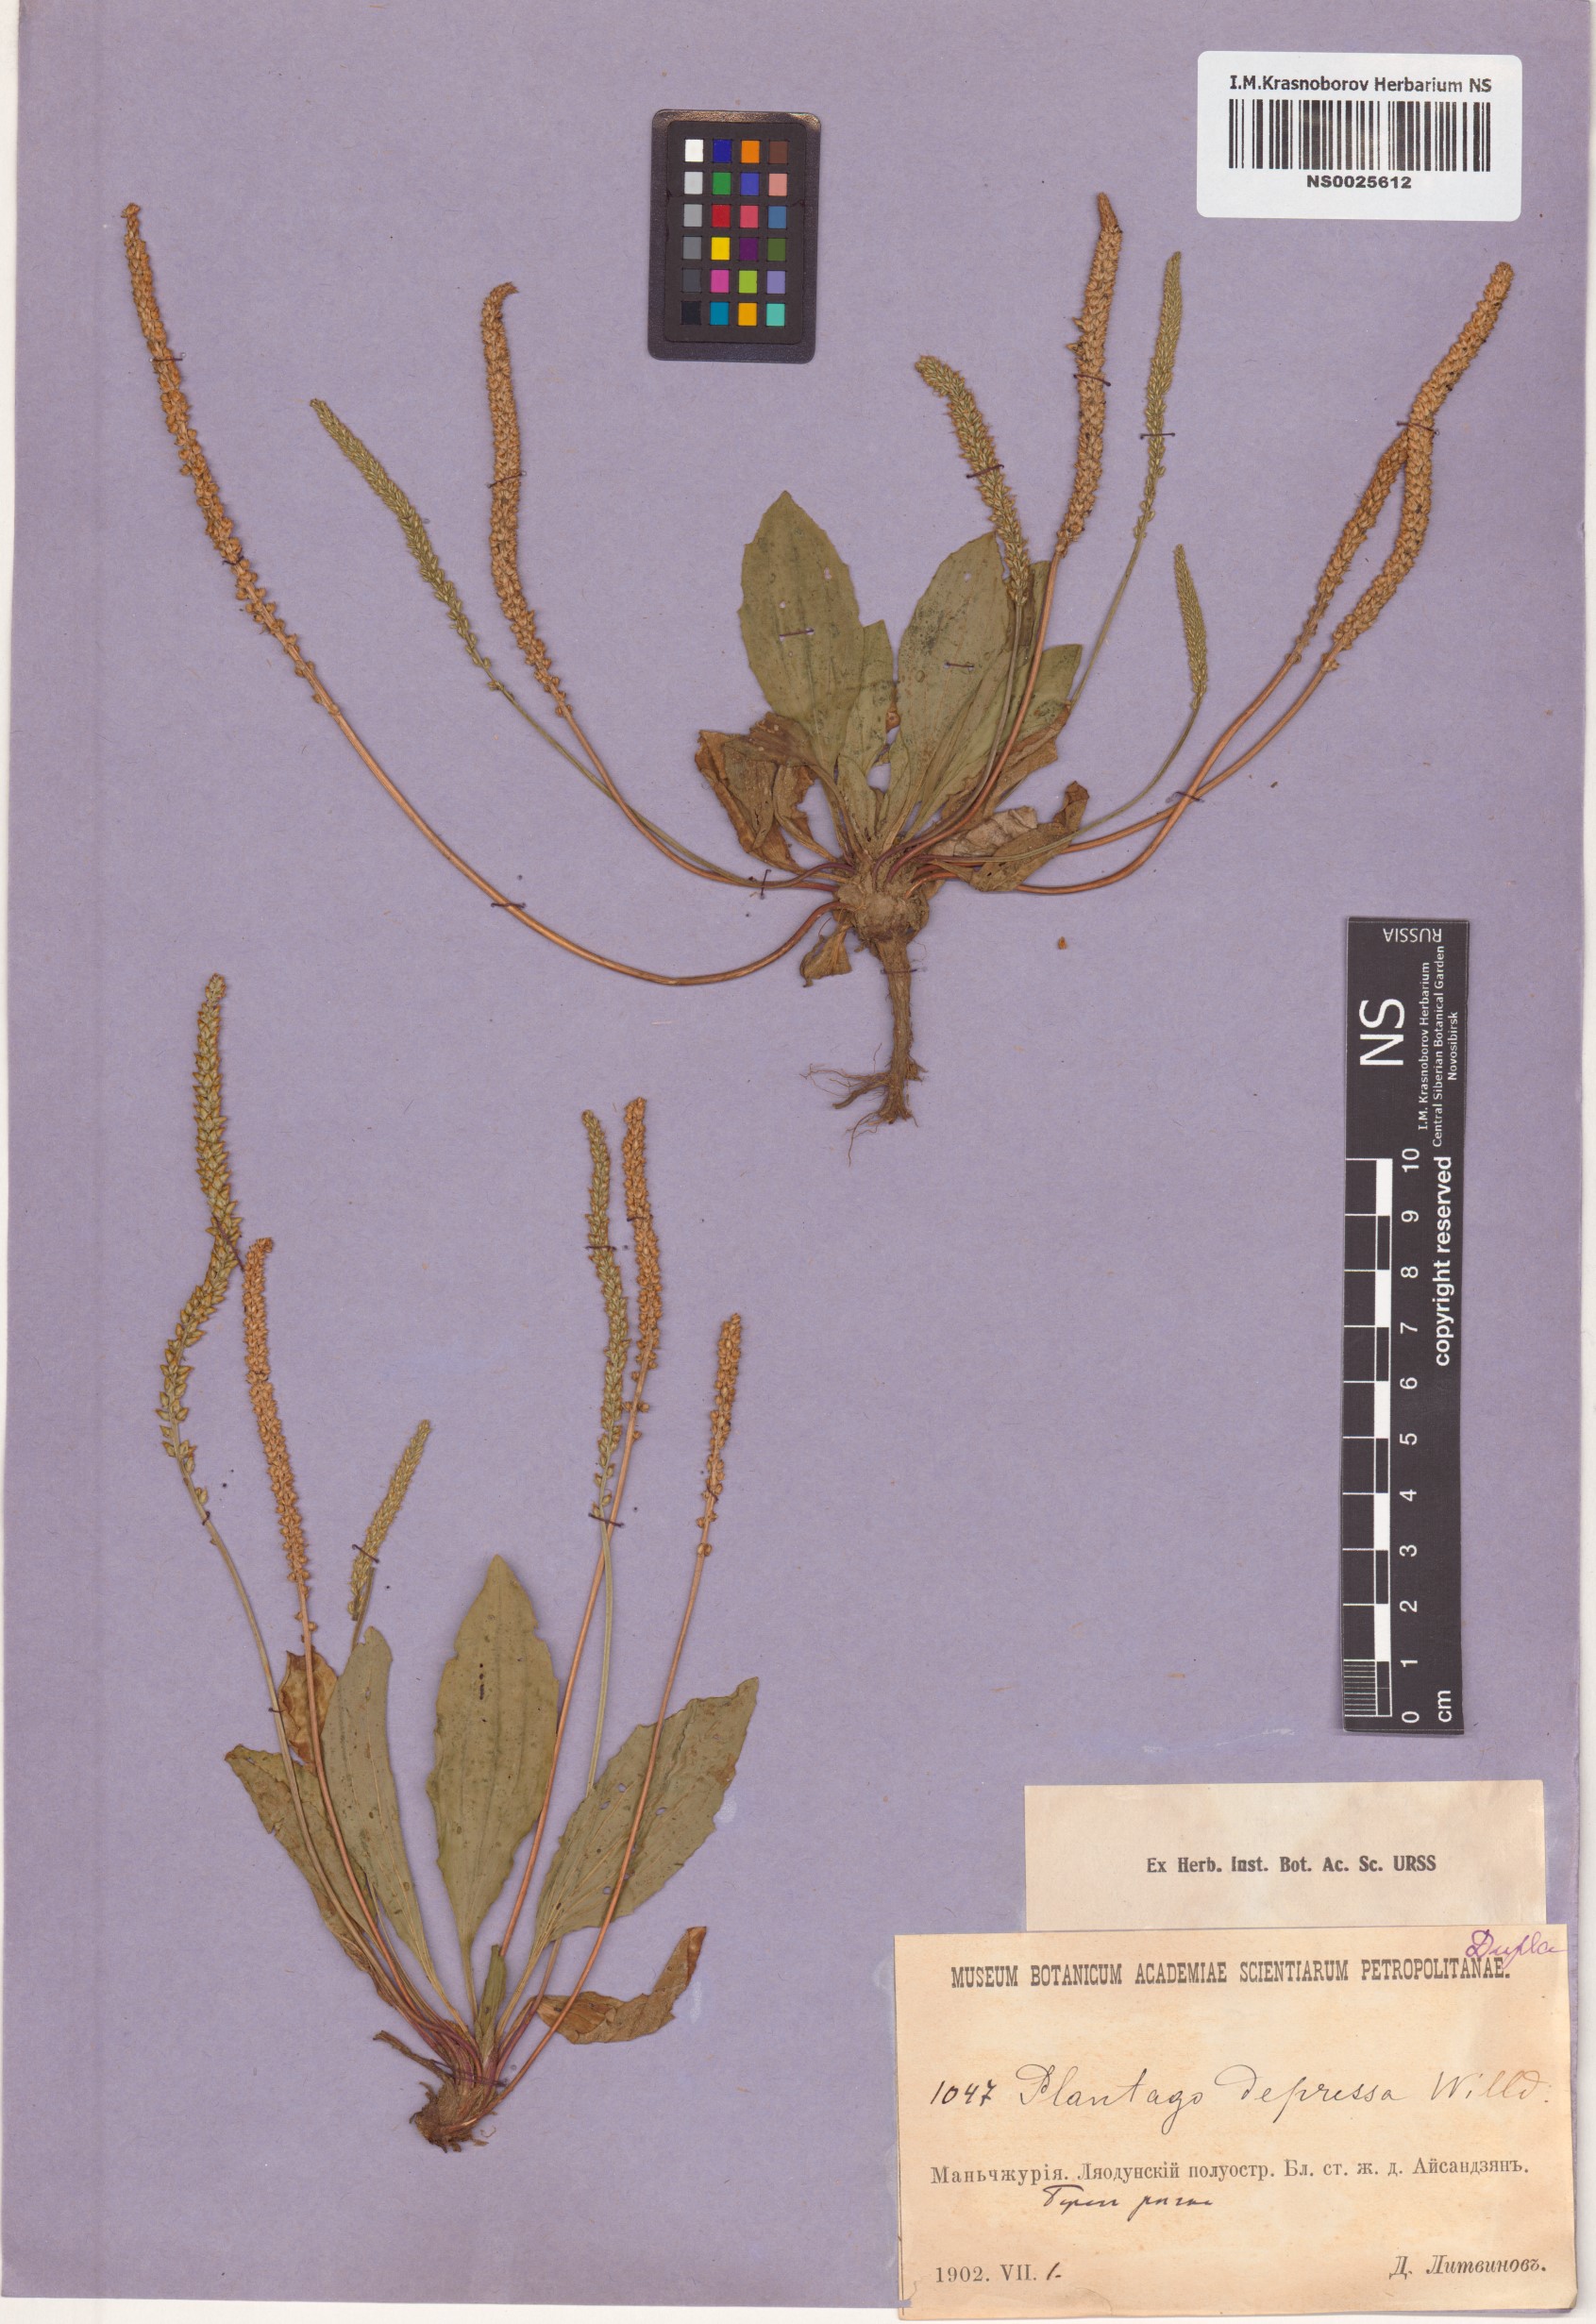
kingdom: Plantae
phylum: Tracheophyta
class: Magnoliopsida
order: Lamiales
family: Plantaginaceae
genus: Plantago
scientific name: Plantago depressa
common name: Depressed plantain
